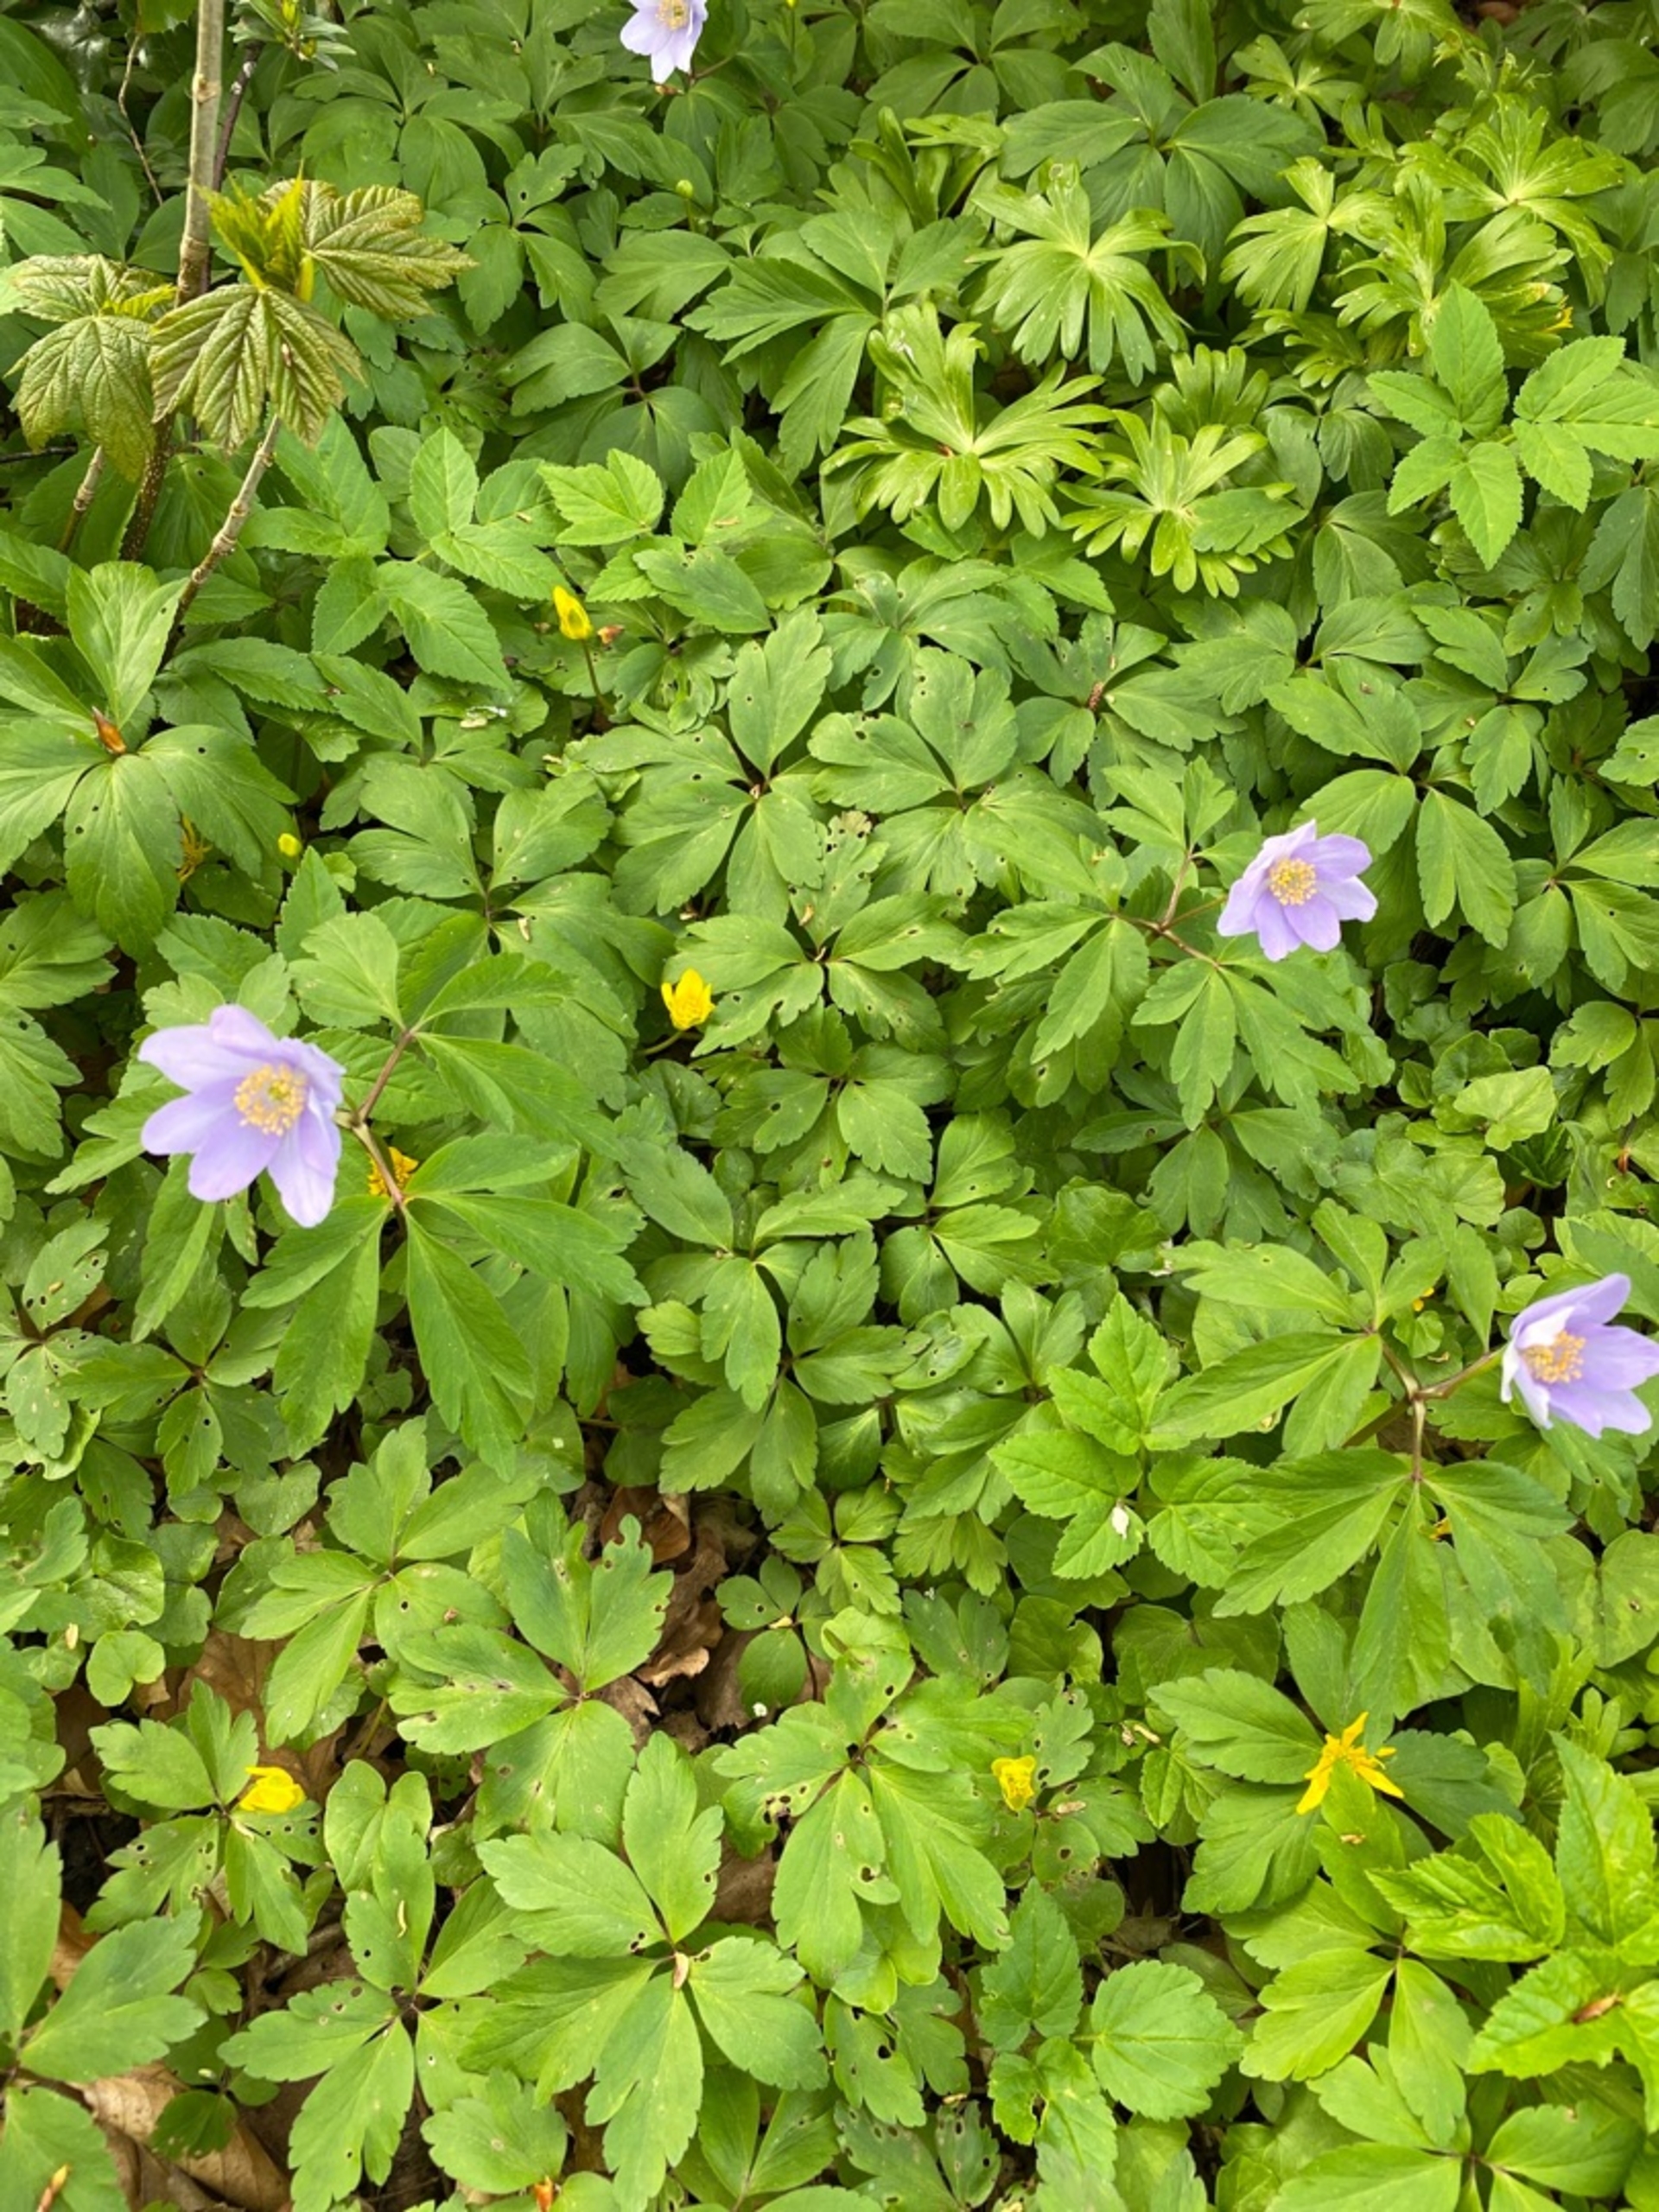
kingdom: Plantae
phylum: Tracheophyta
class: Magnoliopsida
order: Ranunculales
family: Ranunculaceae
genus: Anemone
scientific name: Anemone nemorosa
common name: Hvid anemone
